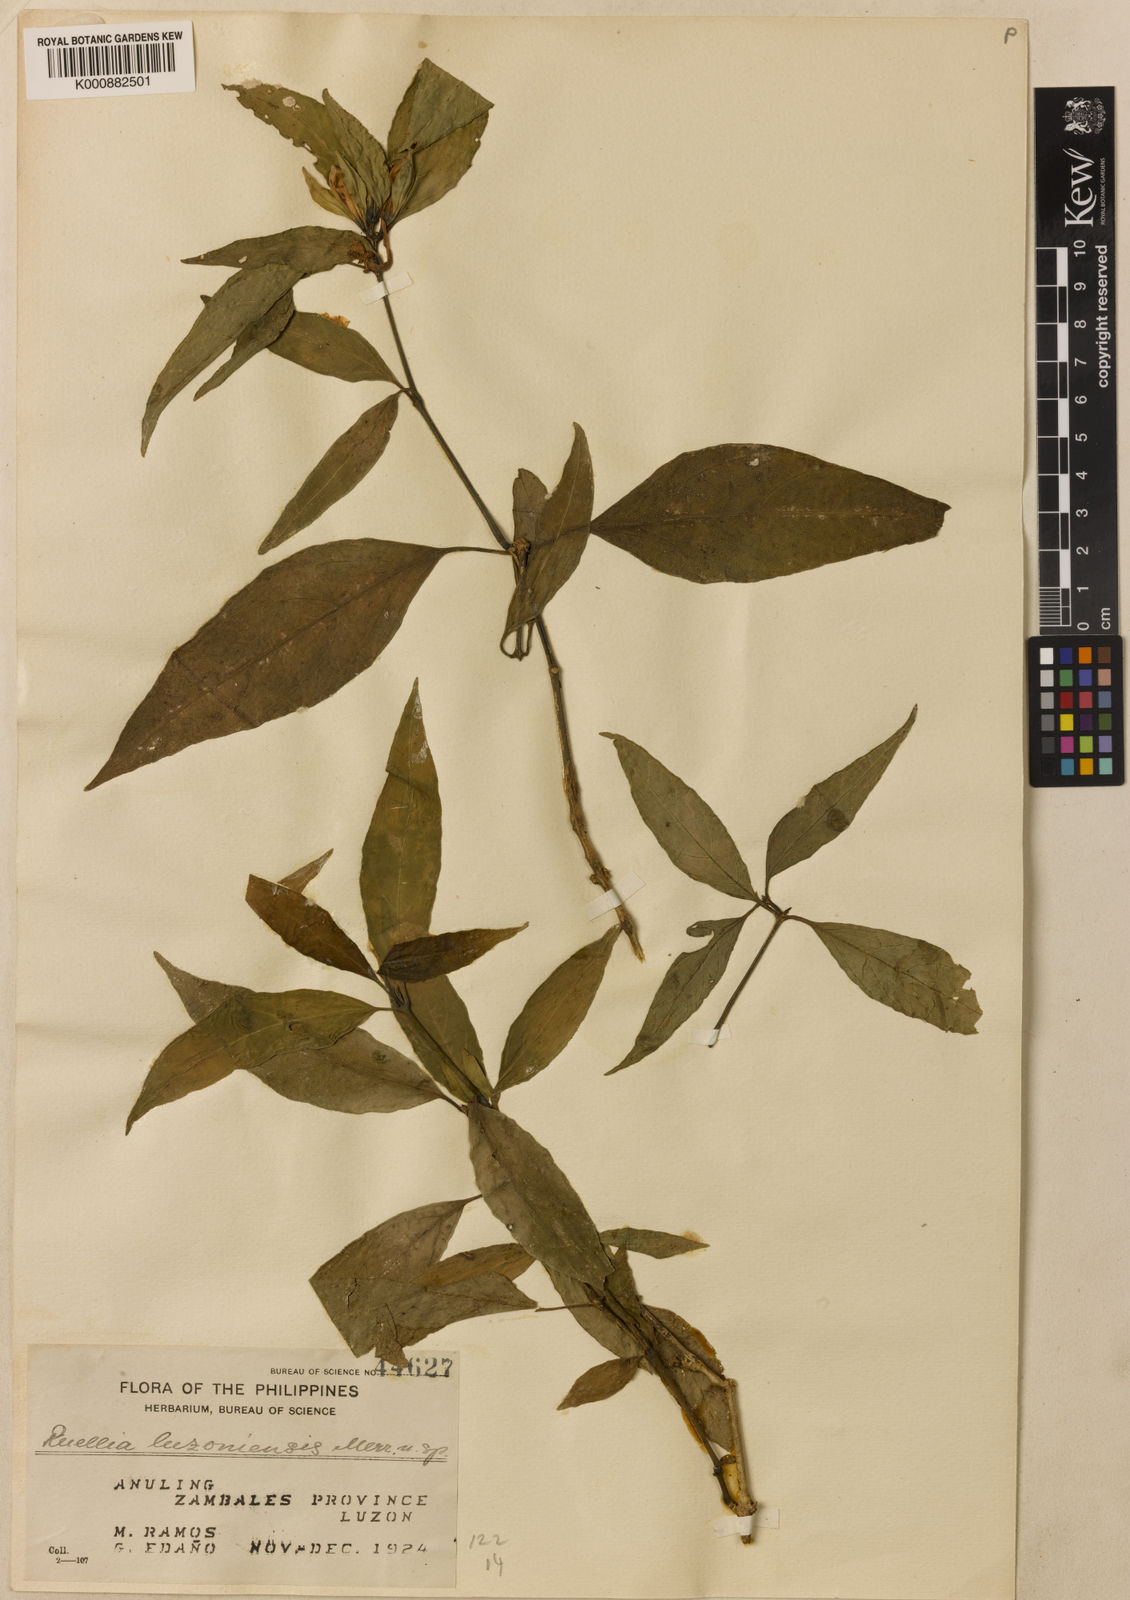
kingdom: Plantae
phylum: Tracheophyta
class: Magnoliopsida
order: Lamiales
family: Acanthaceae
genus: Ruellia
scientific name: Ruellia luzoniensis
